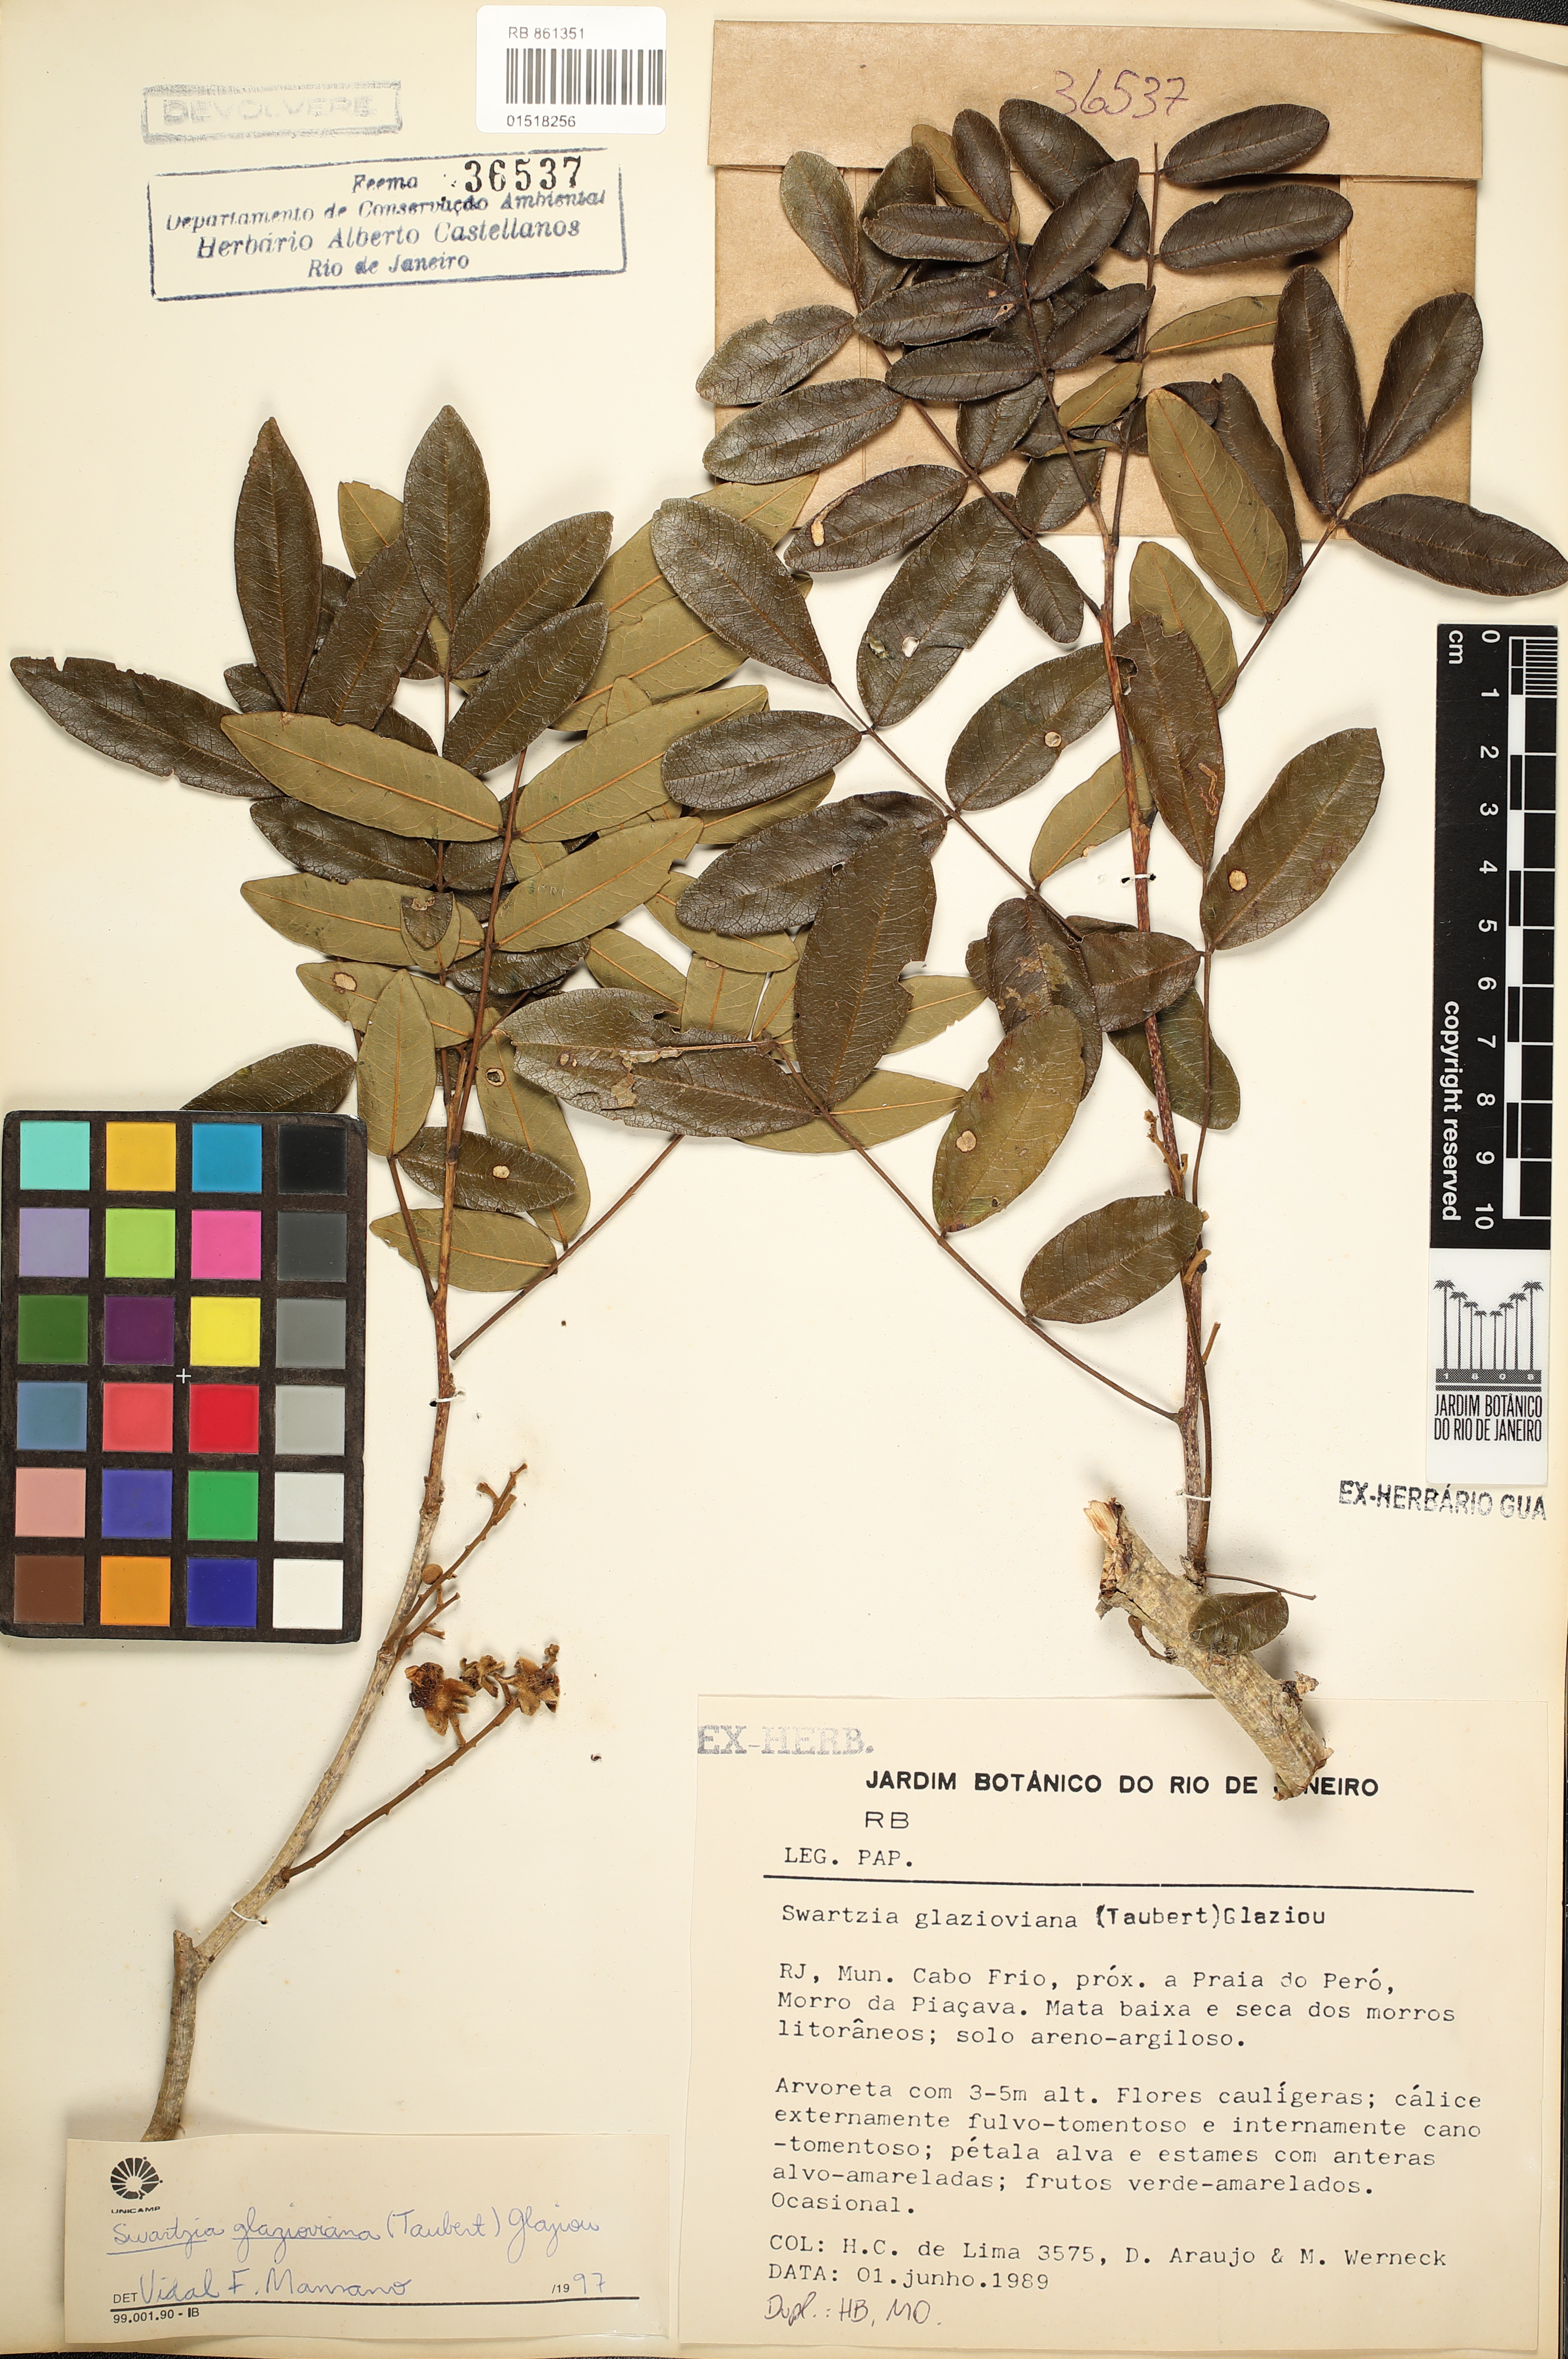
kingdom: Plantae
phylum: Tracheophyta
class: Magnoliopsida
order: Fabales
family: Fabaceae
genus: Swartzia
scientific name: Swartzia glazioviana
